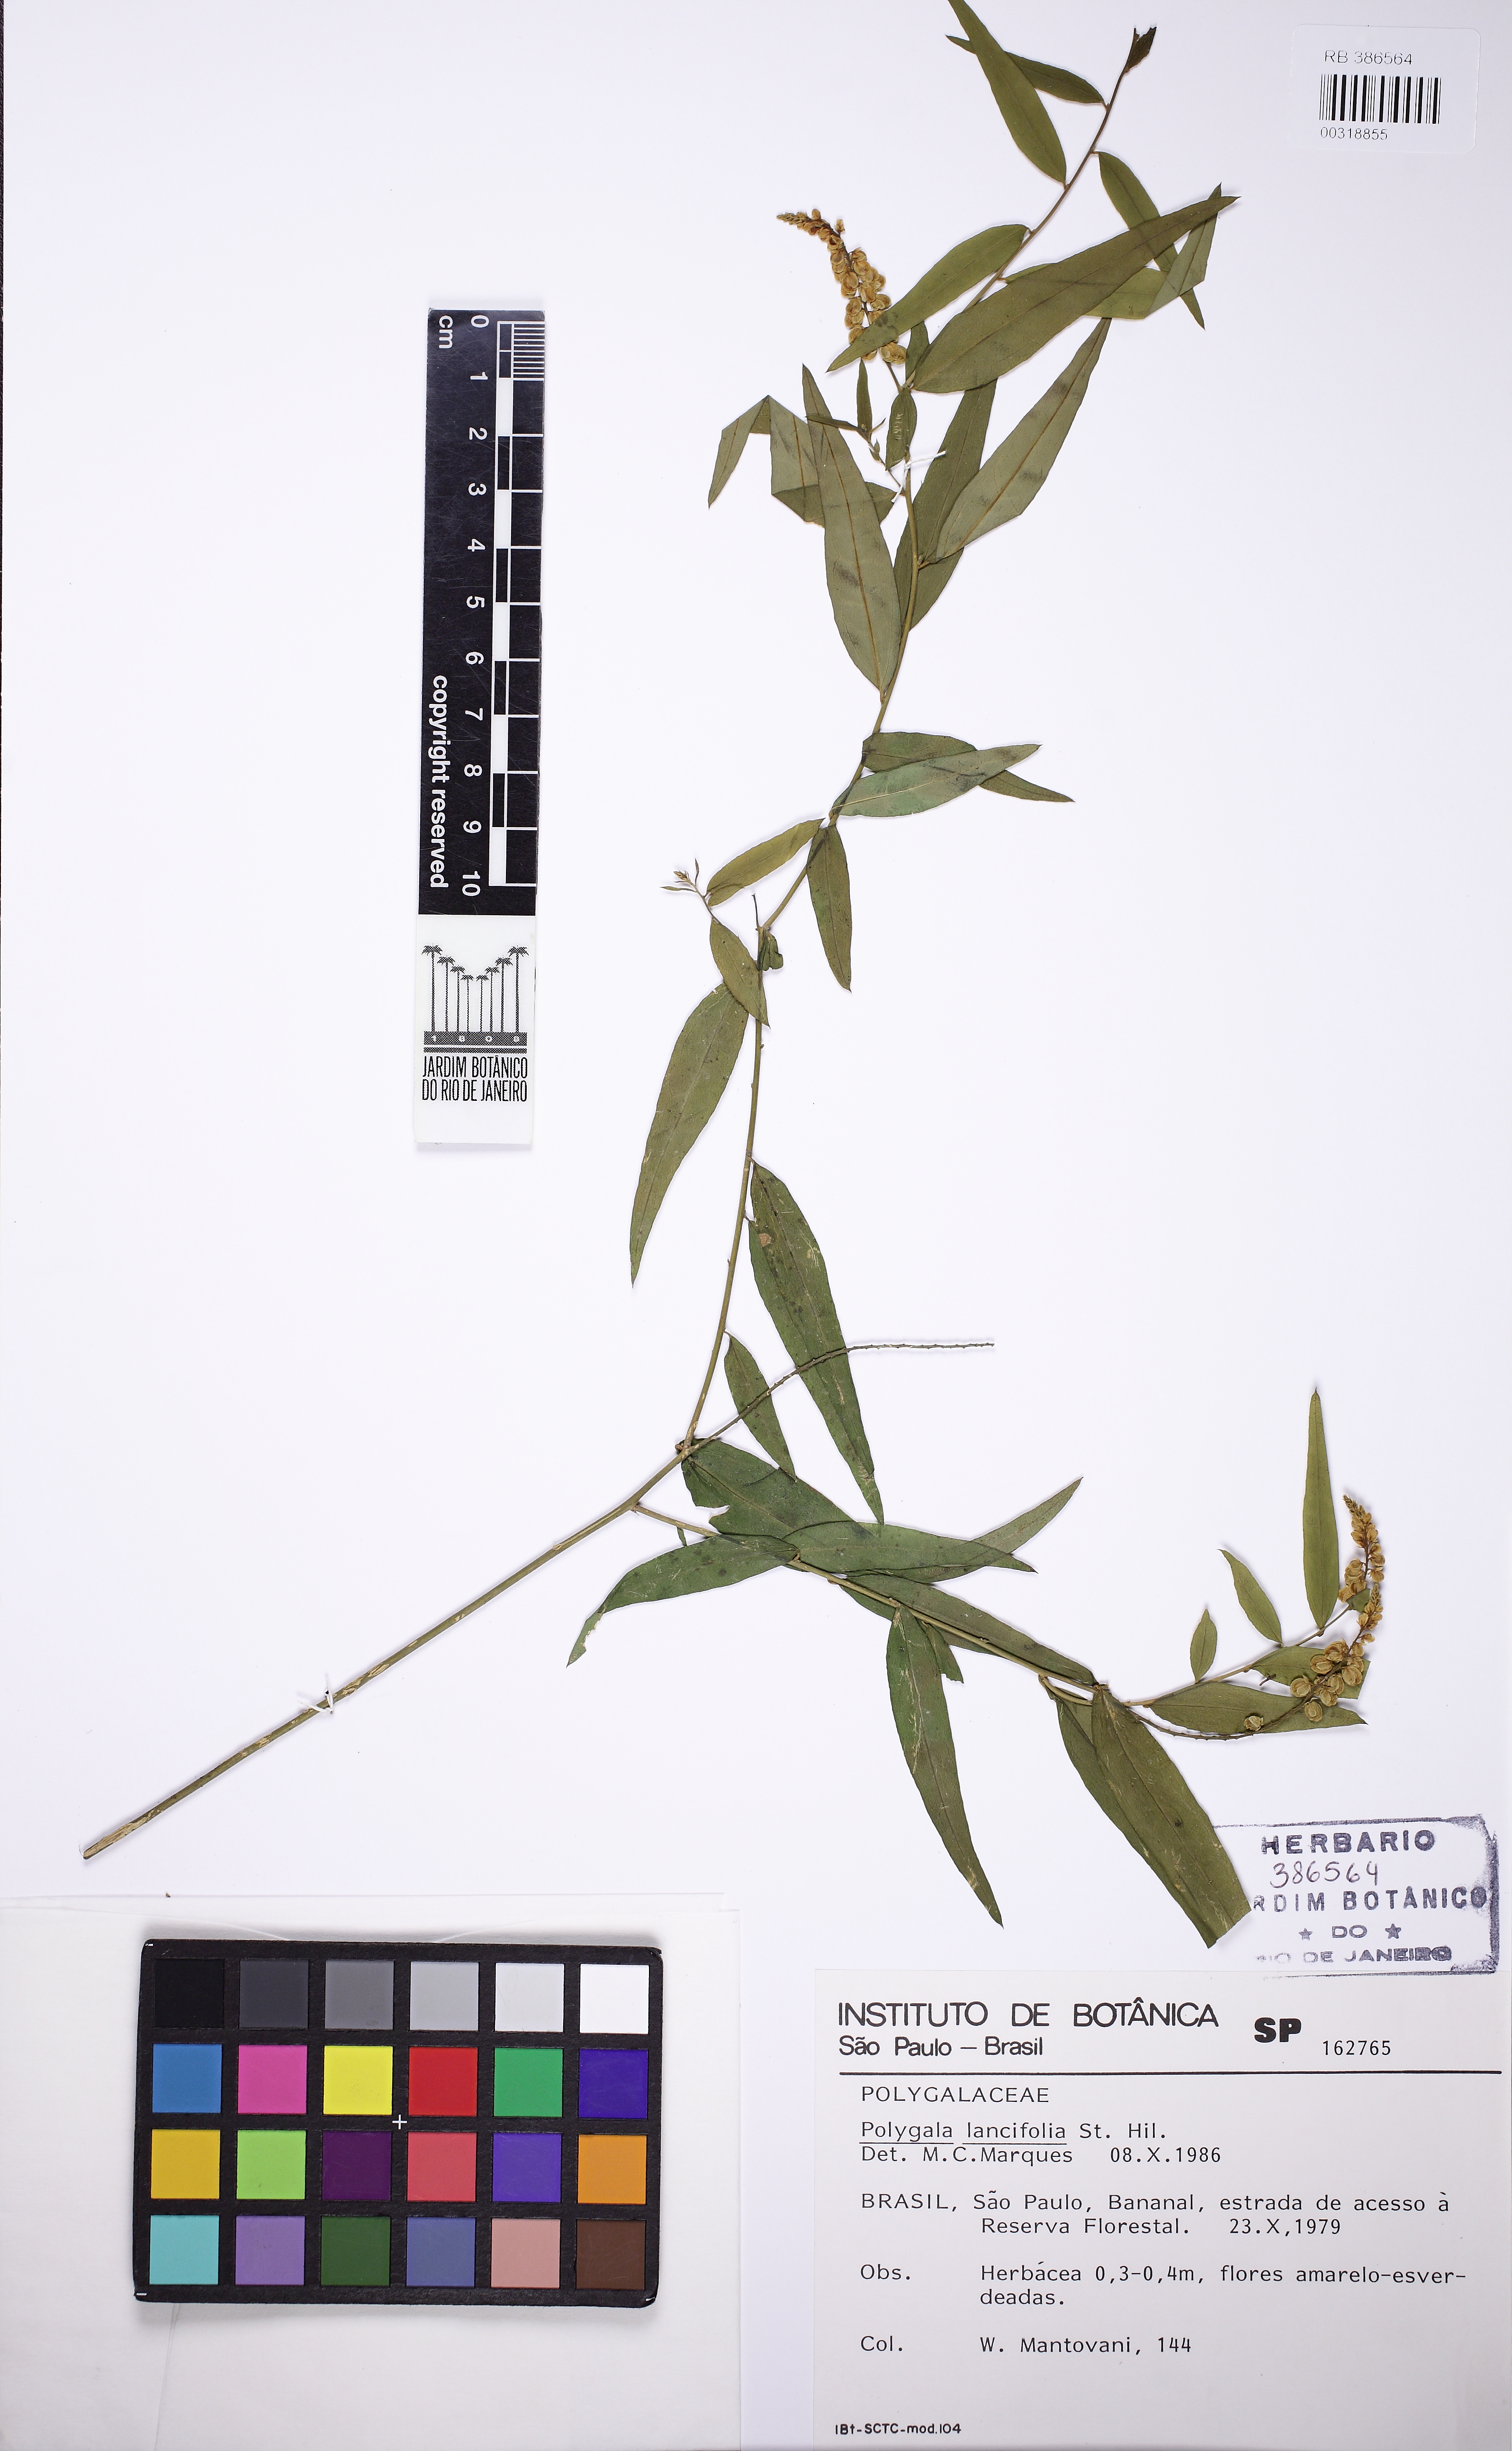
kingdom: Plantae
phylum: Tracheophyta
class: Magnoliopsida
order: Fabales
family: Polygalaceae
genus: Polygala
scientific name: Polygala lancifolia
